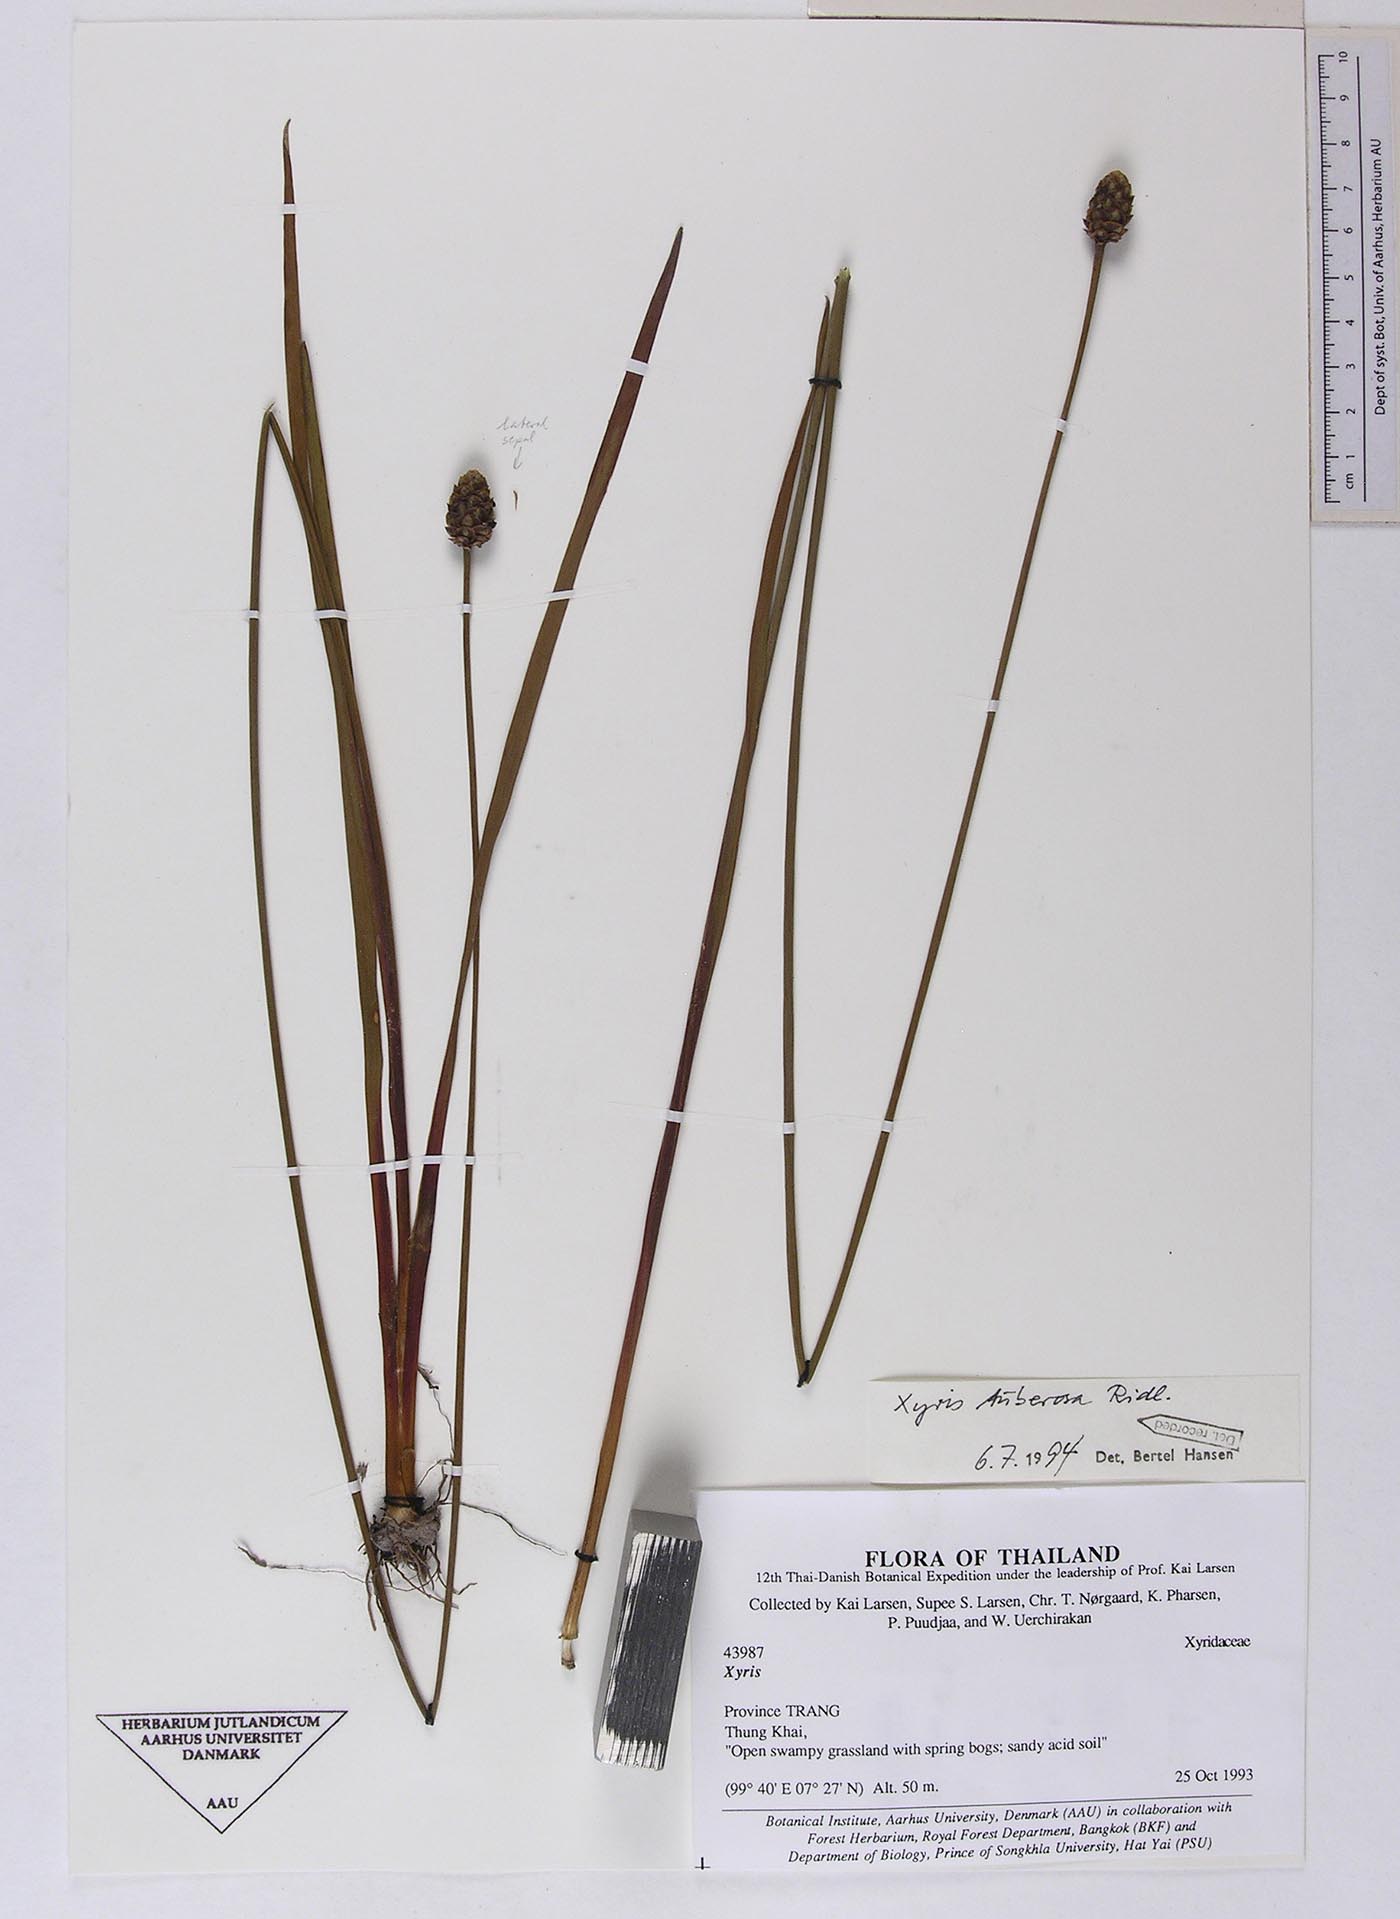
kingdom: Plantae
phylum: Tracheophyta
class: Liliopsida
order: Poales
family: Xyridaceae
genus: Xyris
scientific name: Xyris tuberosa
